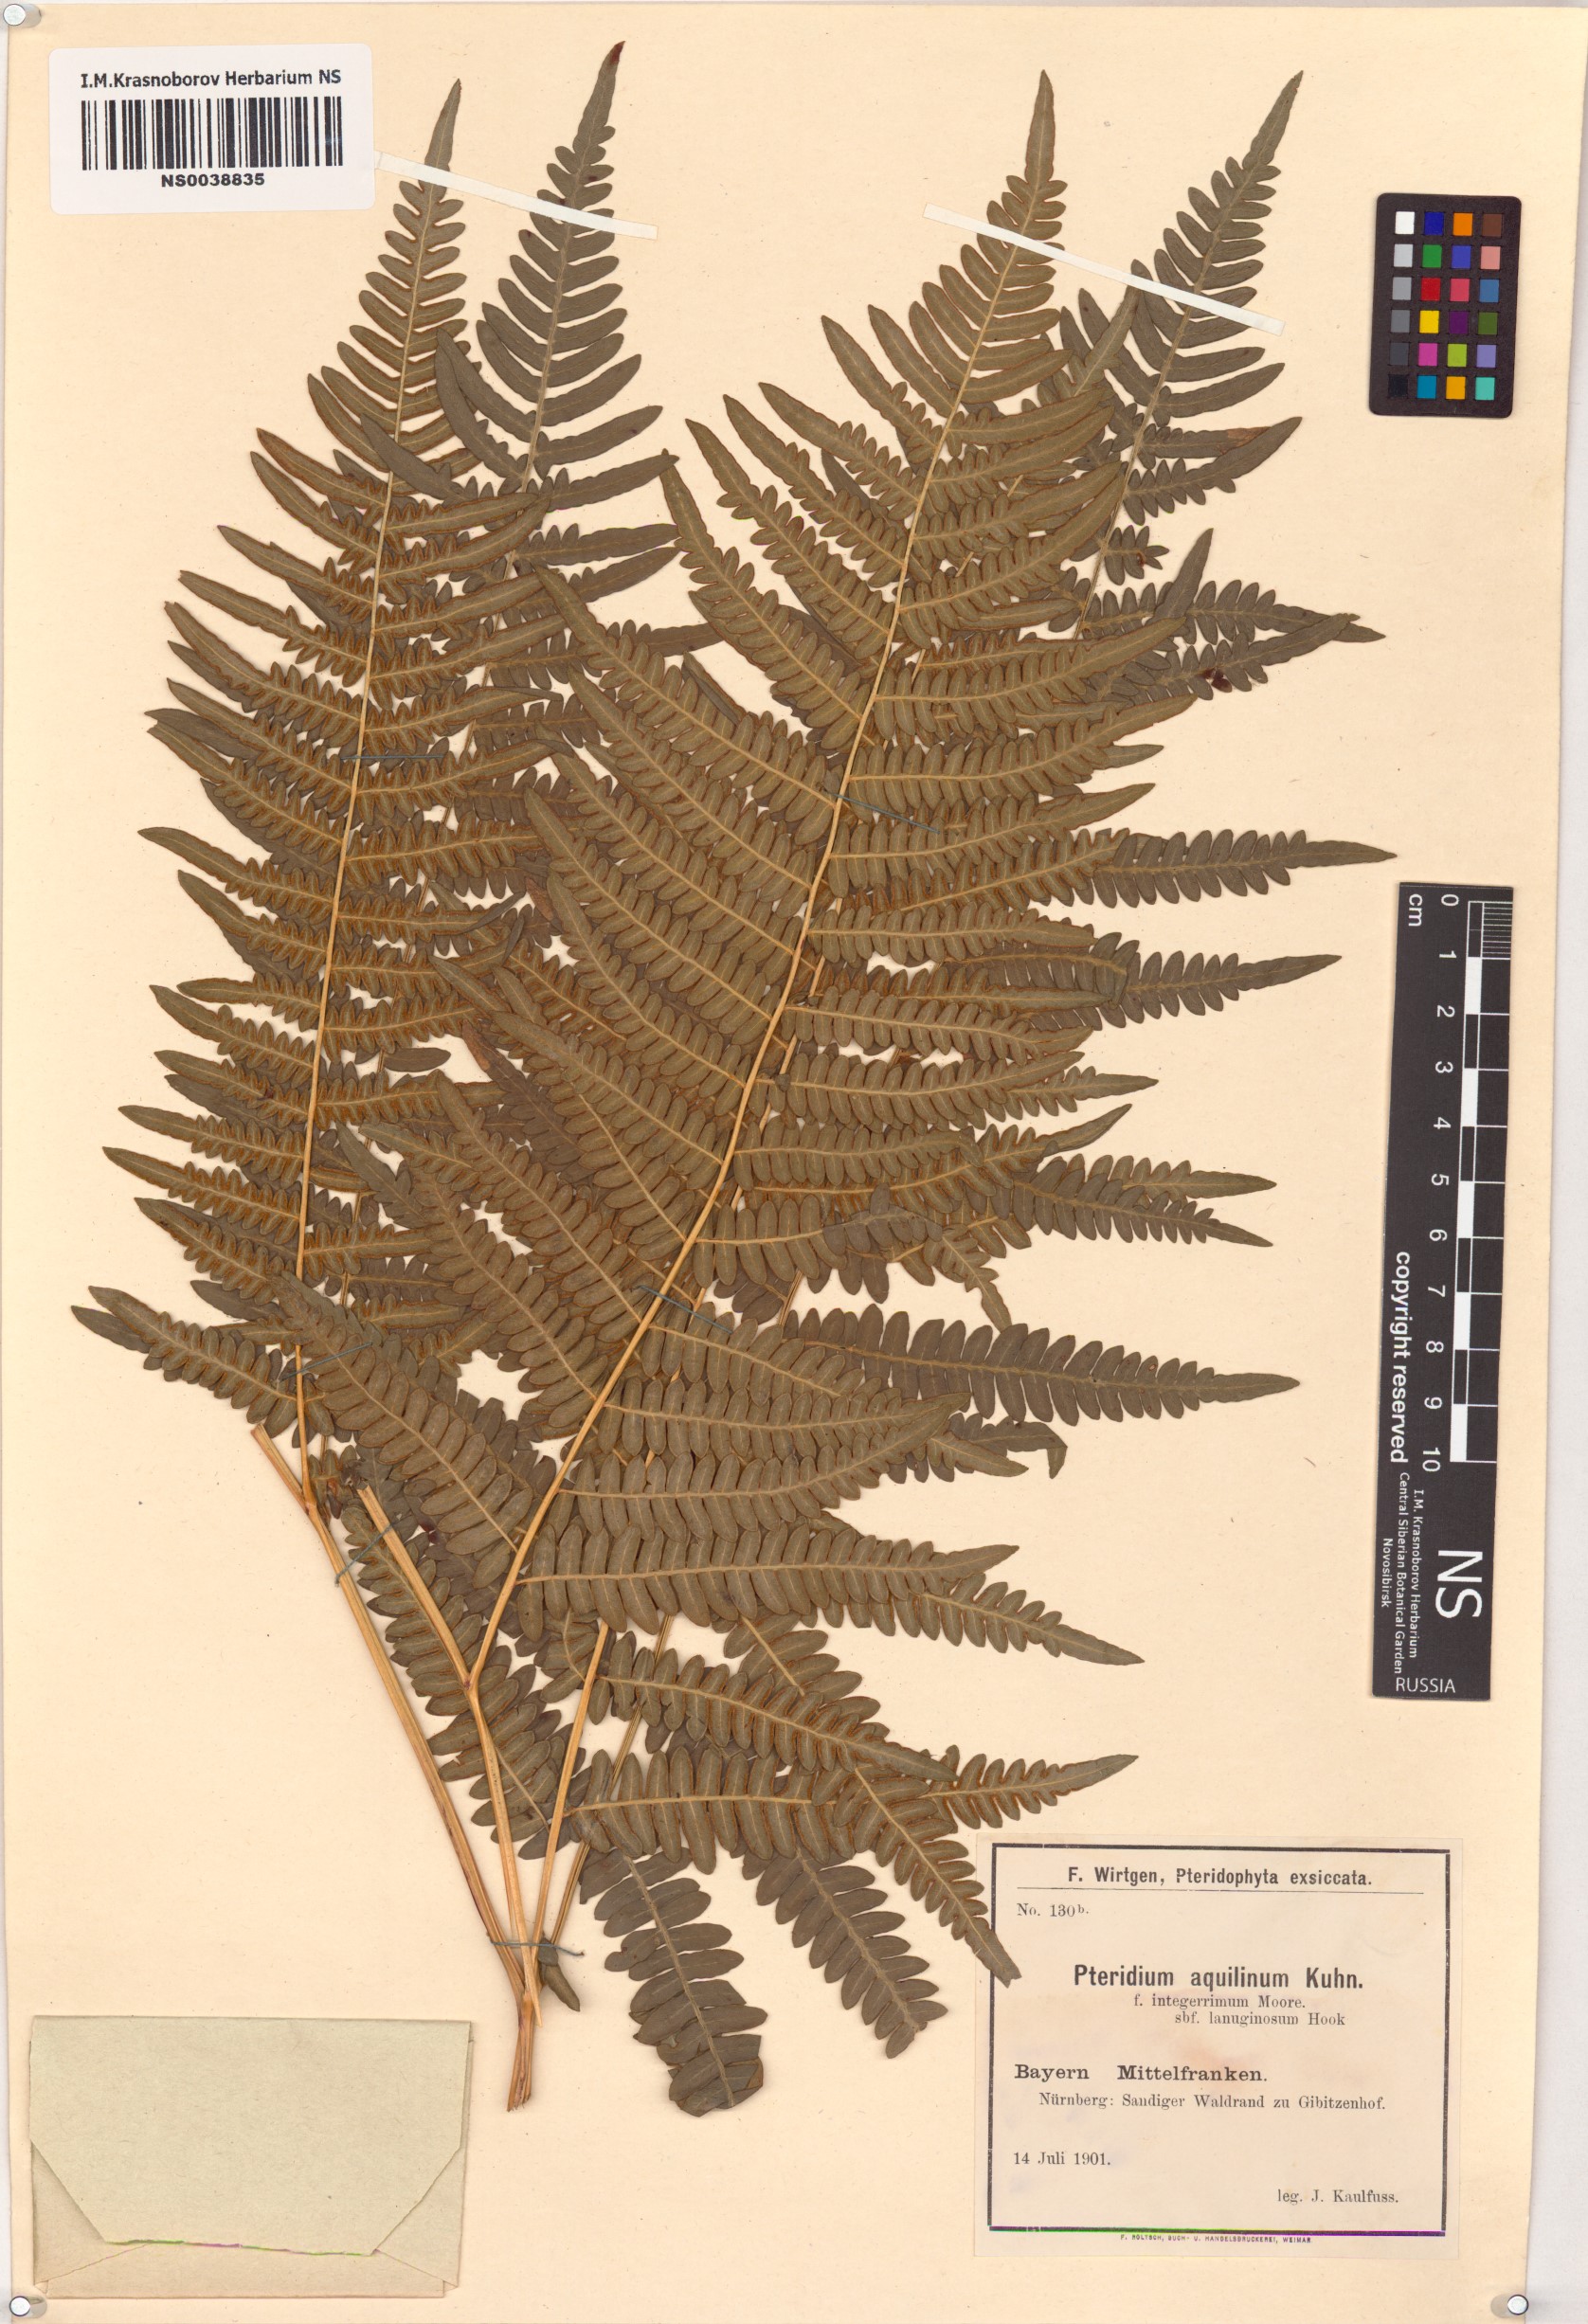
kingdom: Plantae
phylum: Tracheophyta
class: Polypodiopsida
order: Polypodiales
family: Dennstaedtiaceae
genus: Pteridium
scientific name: Pteridium aquilinum
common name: Bracken
